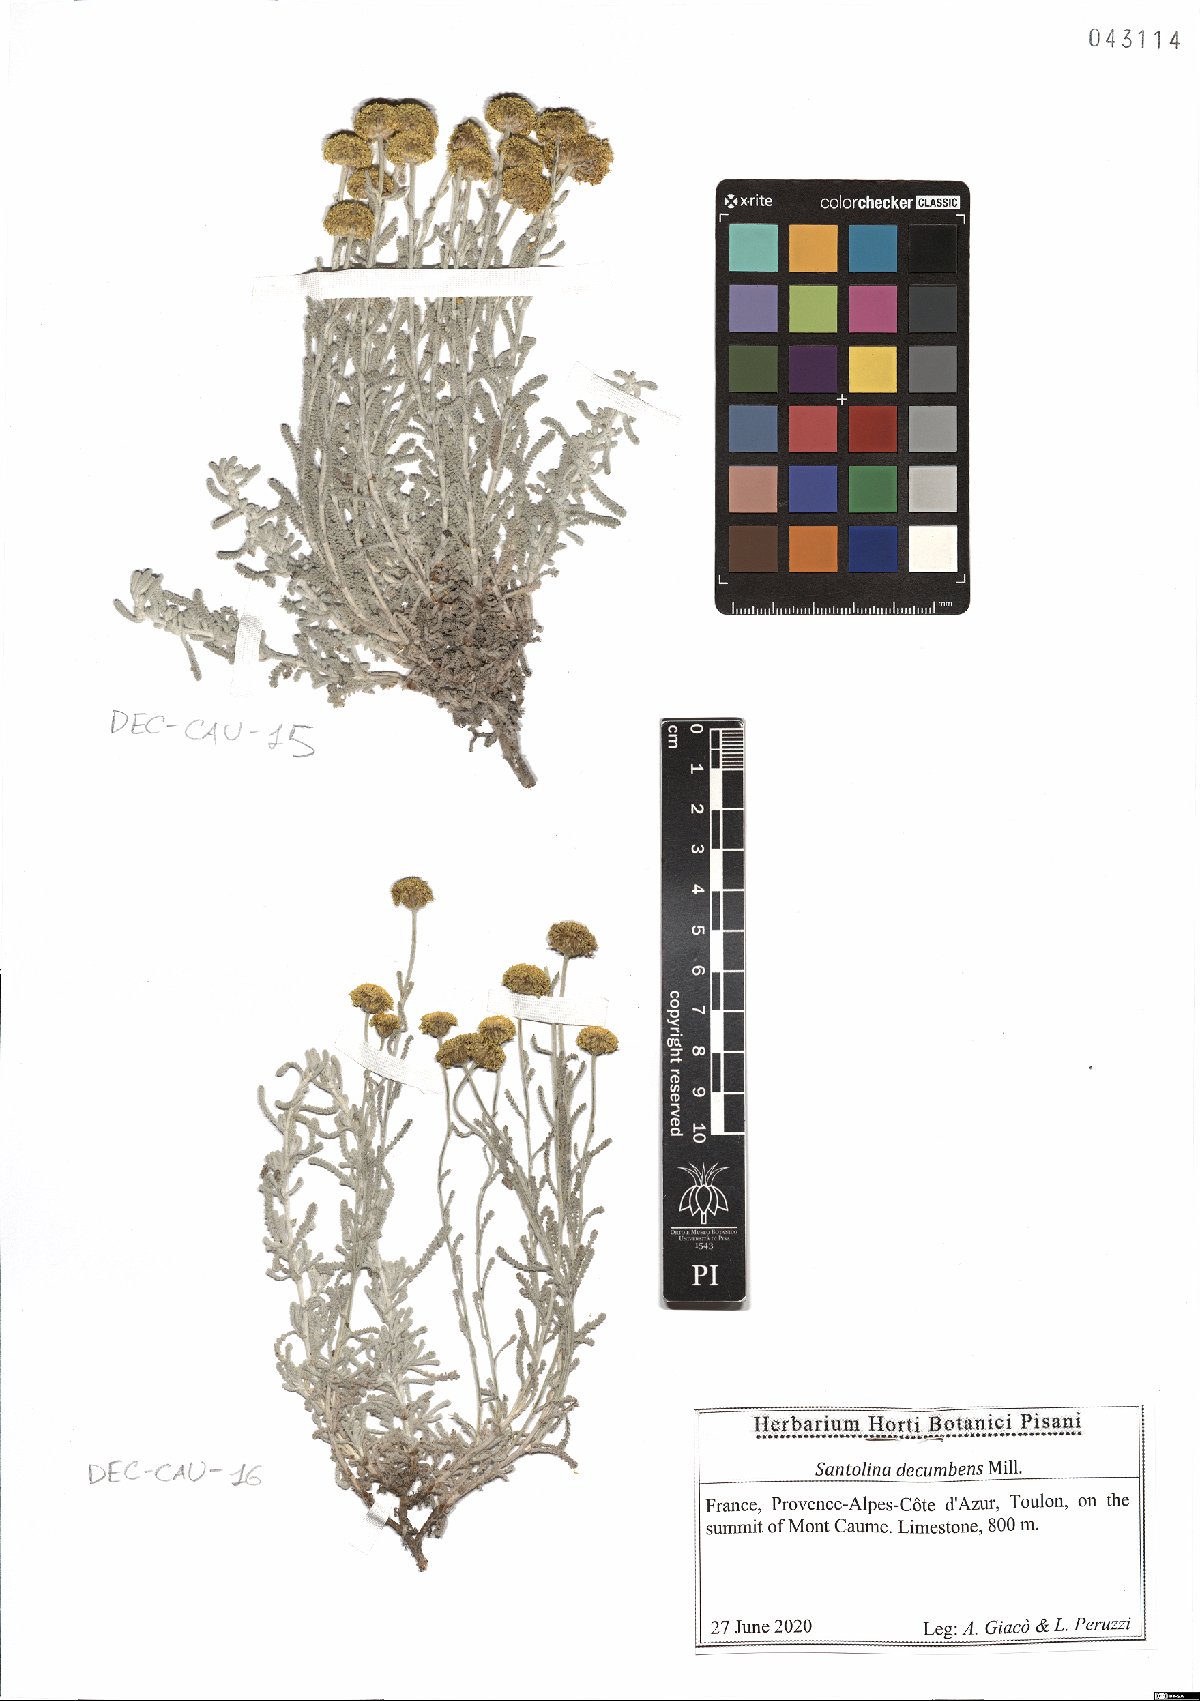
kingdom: Plantae
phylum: Tracheophyta
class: Magnoliopsida
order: Asterales
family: Asteraceae
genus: Santolina
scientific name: Santolina decumbens
